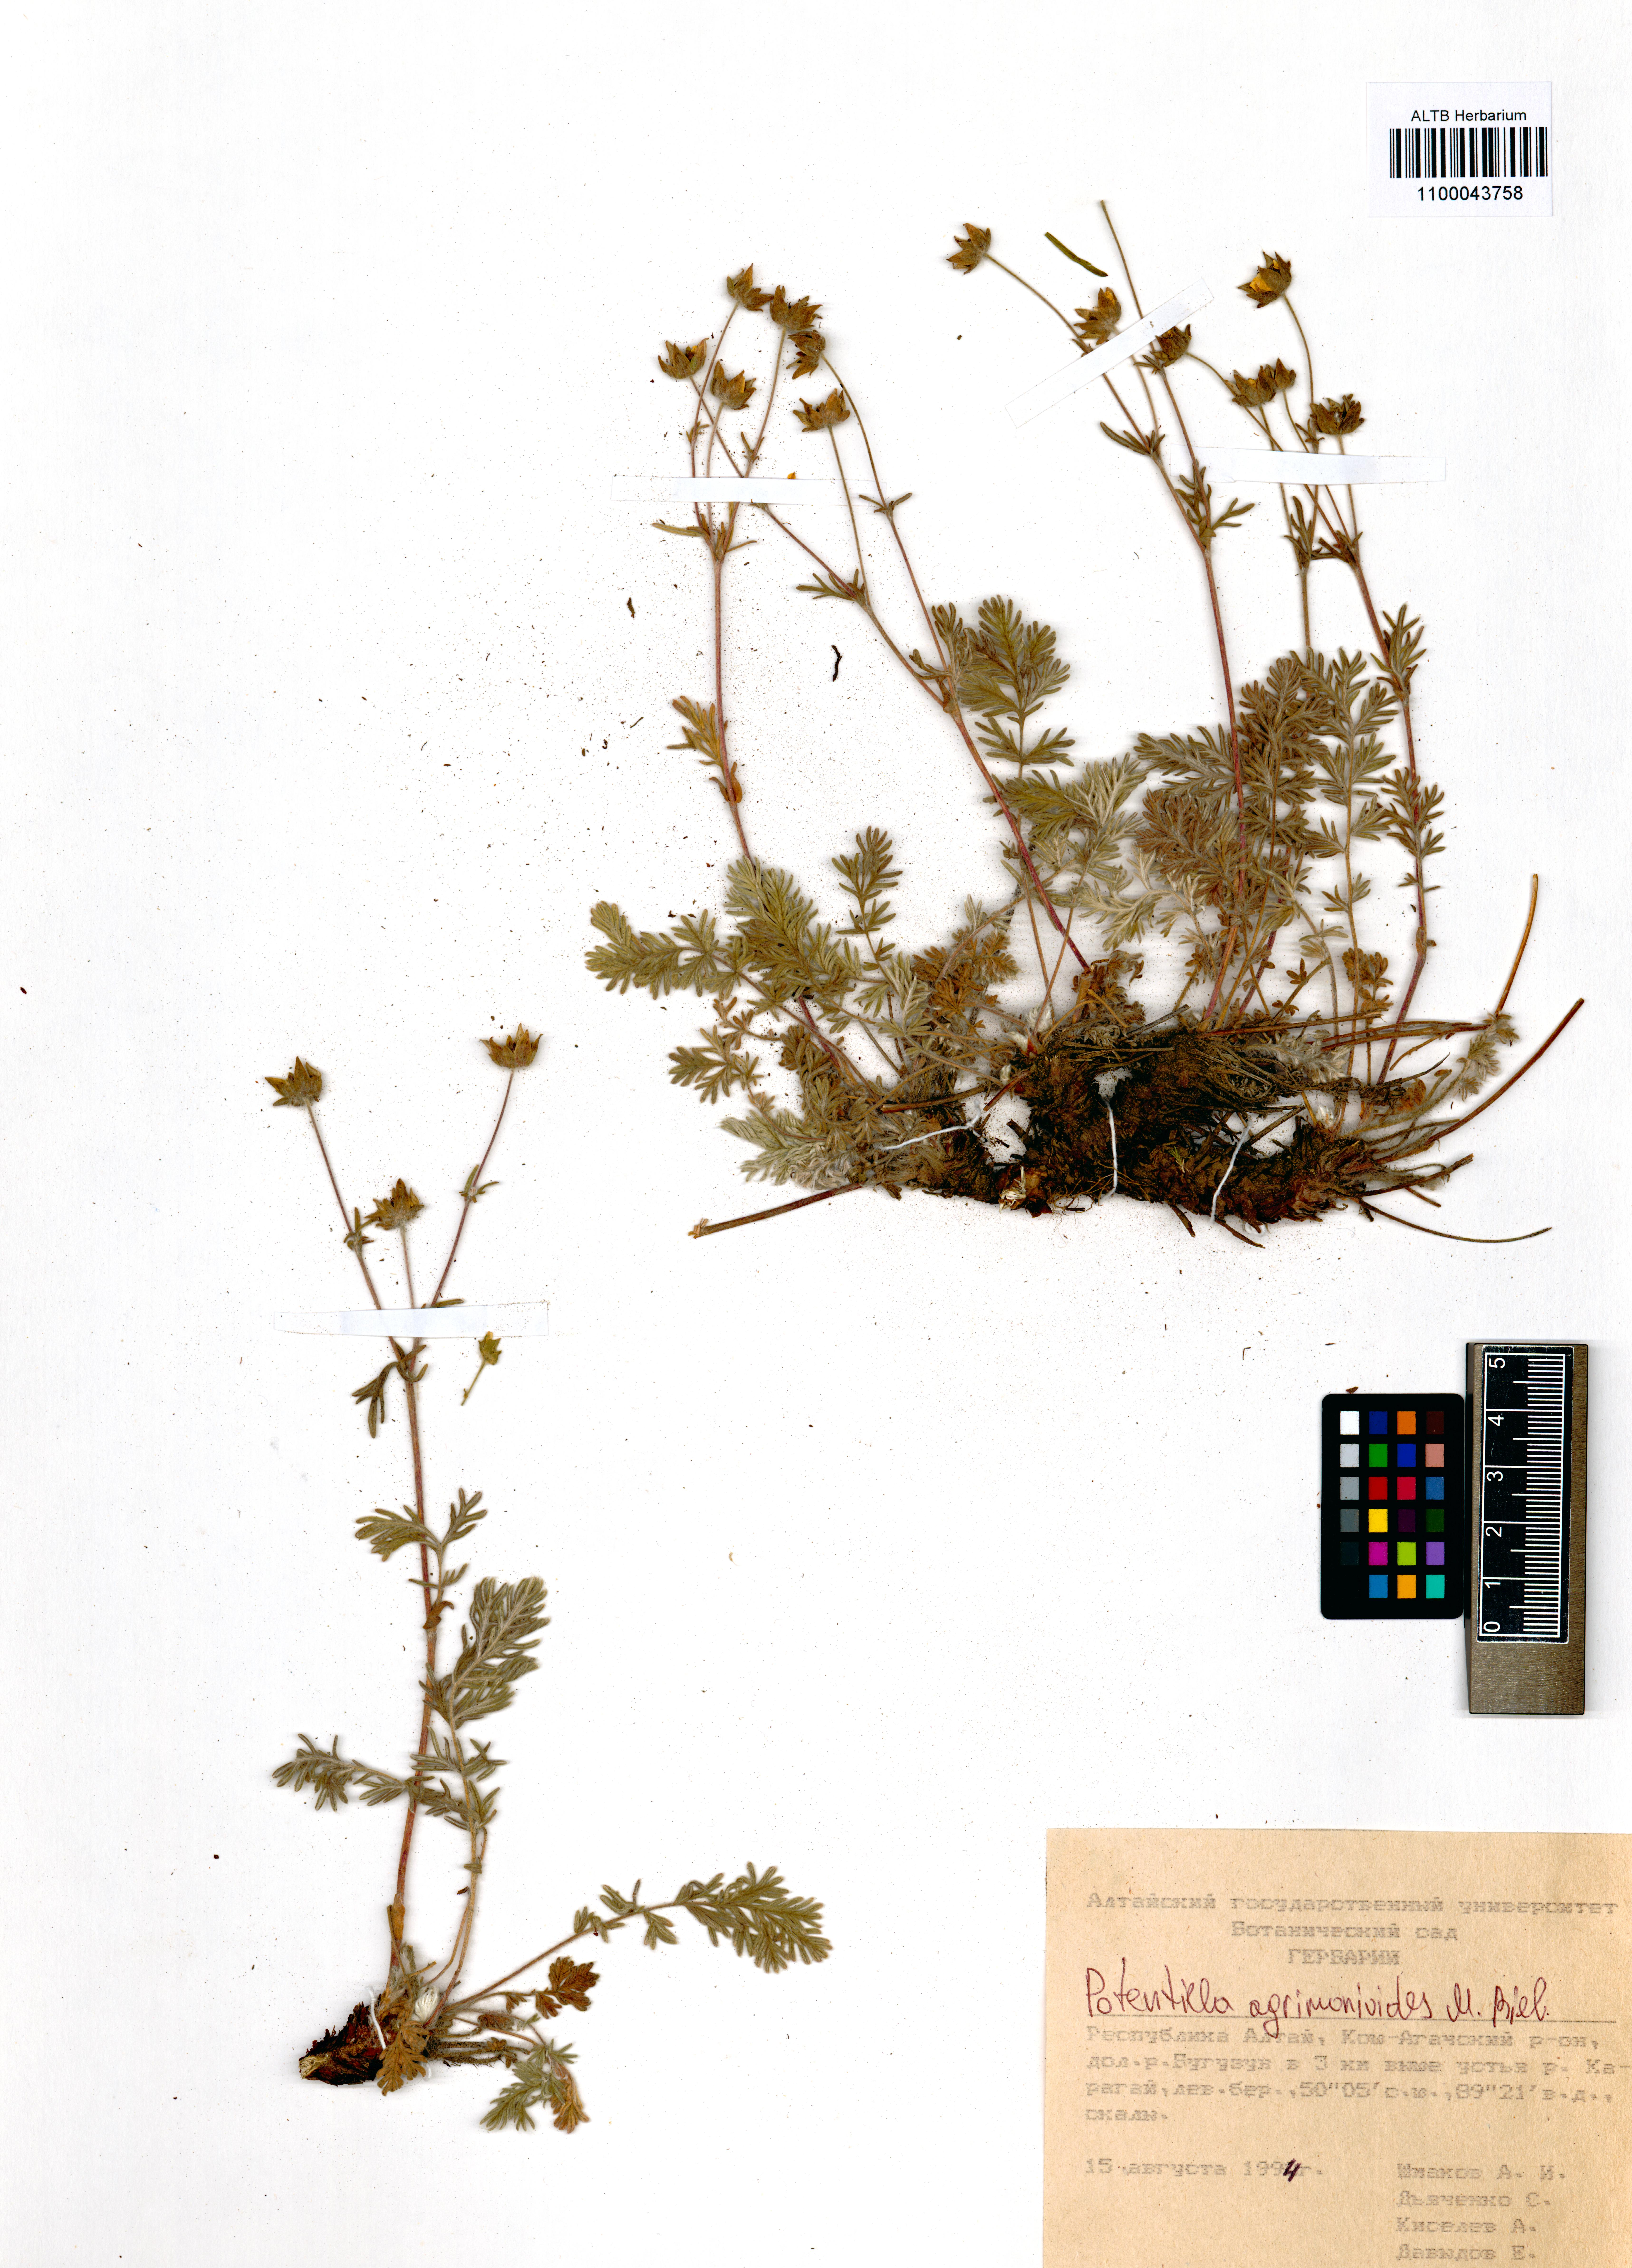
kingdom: Plantae
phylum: Tracheophyta
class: Magnoliopsida
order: Rosales
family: Rosaceae
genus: Potentilla
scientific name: Potentilla agrimonioides
